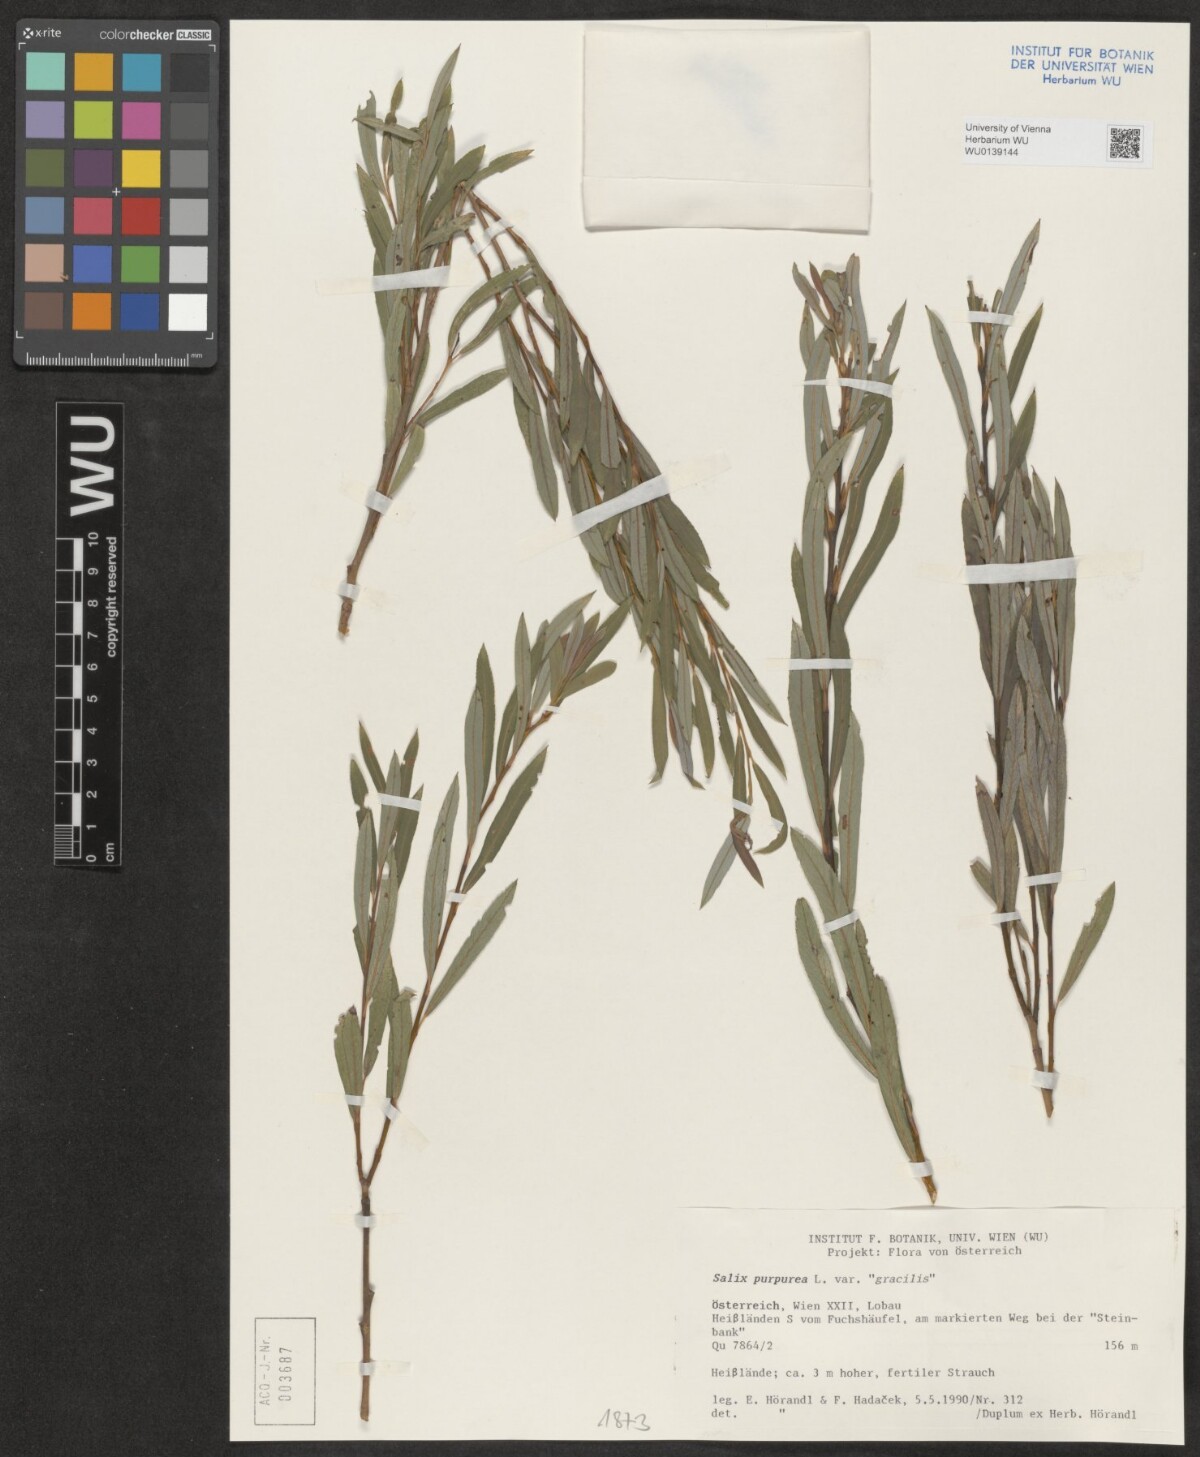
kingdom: Plantae
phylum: Tracheophyta
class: Magnoliopsida
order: Malpighiales
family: Salicaceae
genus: Salix
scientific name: Salix purpurea
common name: Purple willow
